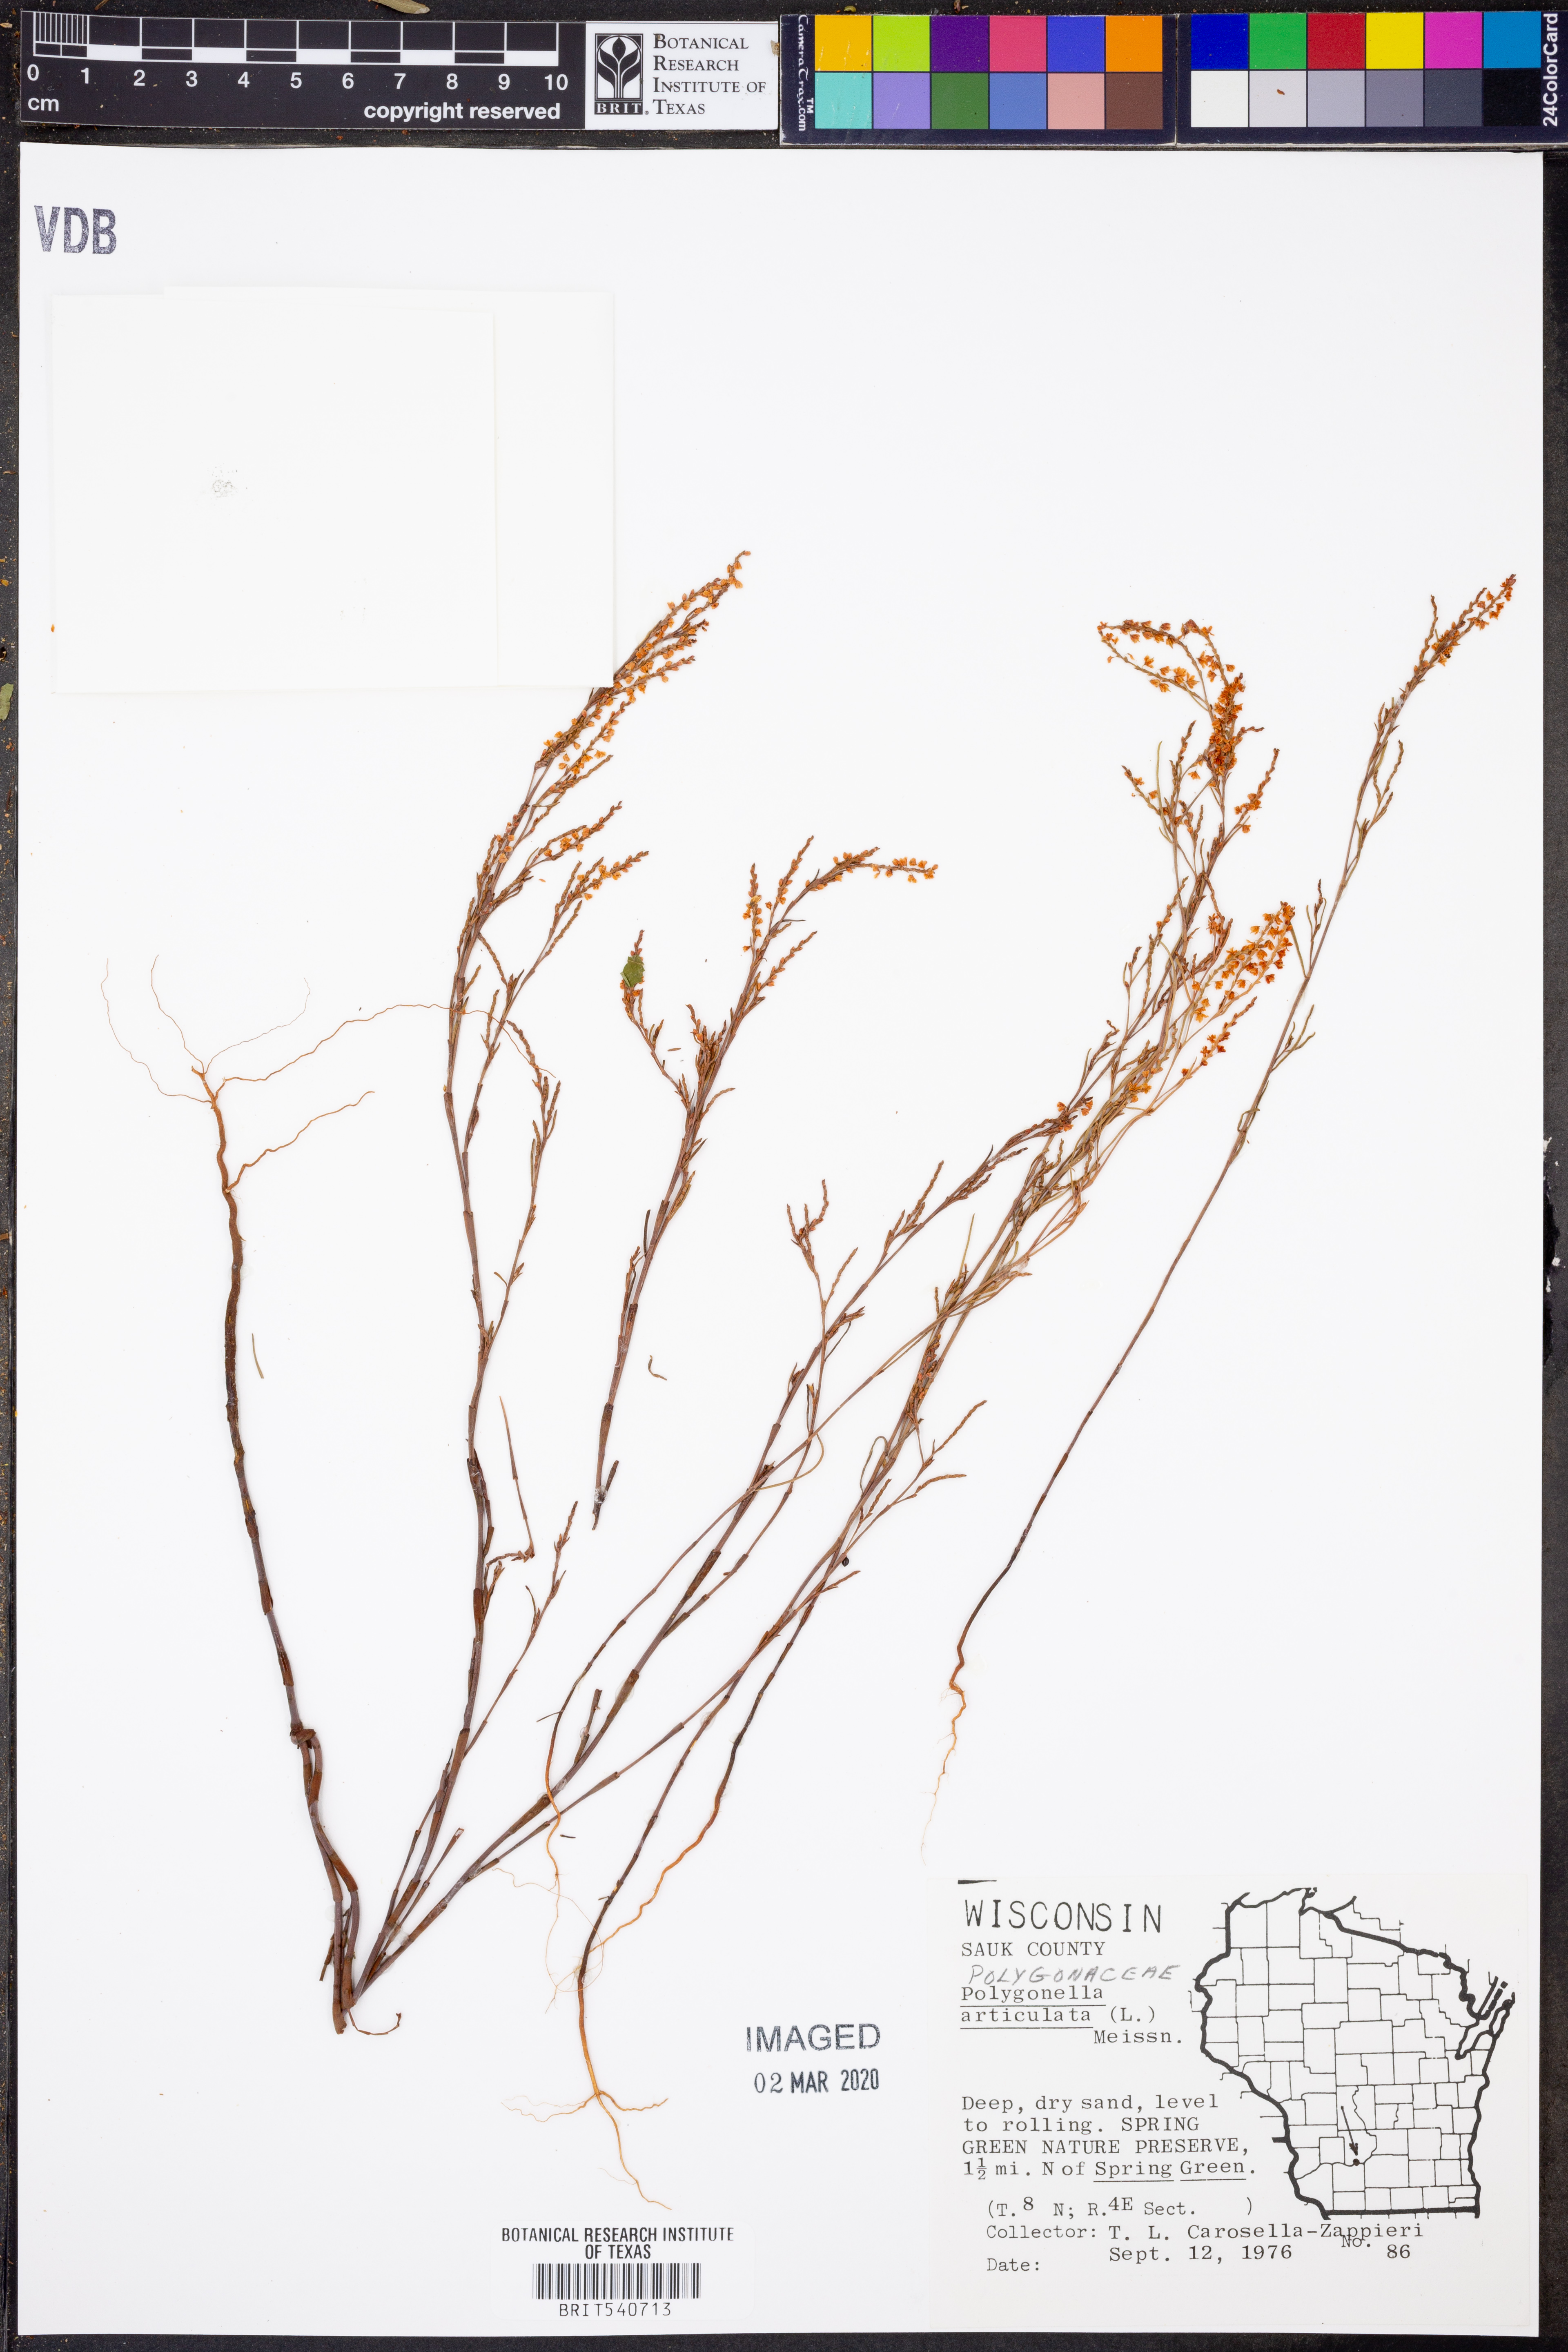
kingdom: Plantae
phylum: Tracheophyta
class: Magnoliopsida
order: Caryophyllales
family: Polygonaceae
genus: Polygonella
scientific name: Polygonella articulata
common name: Coastal jointweed
